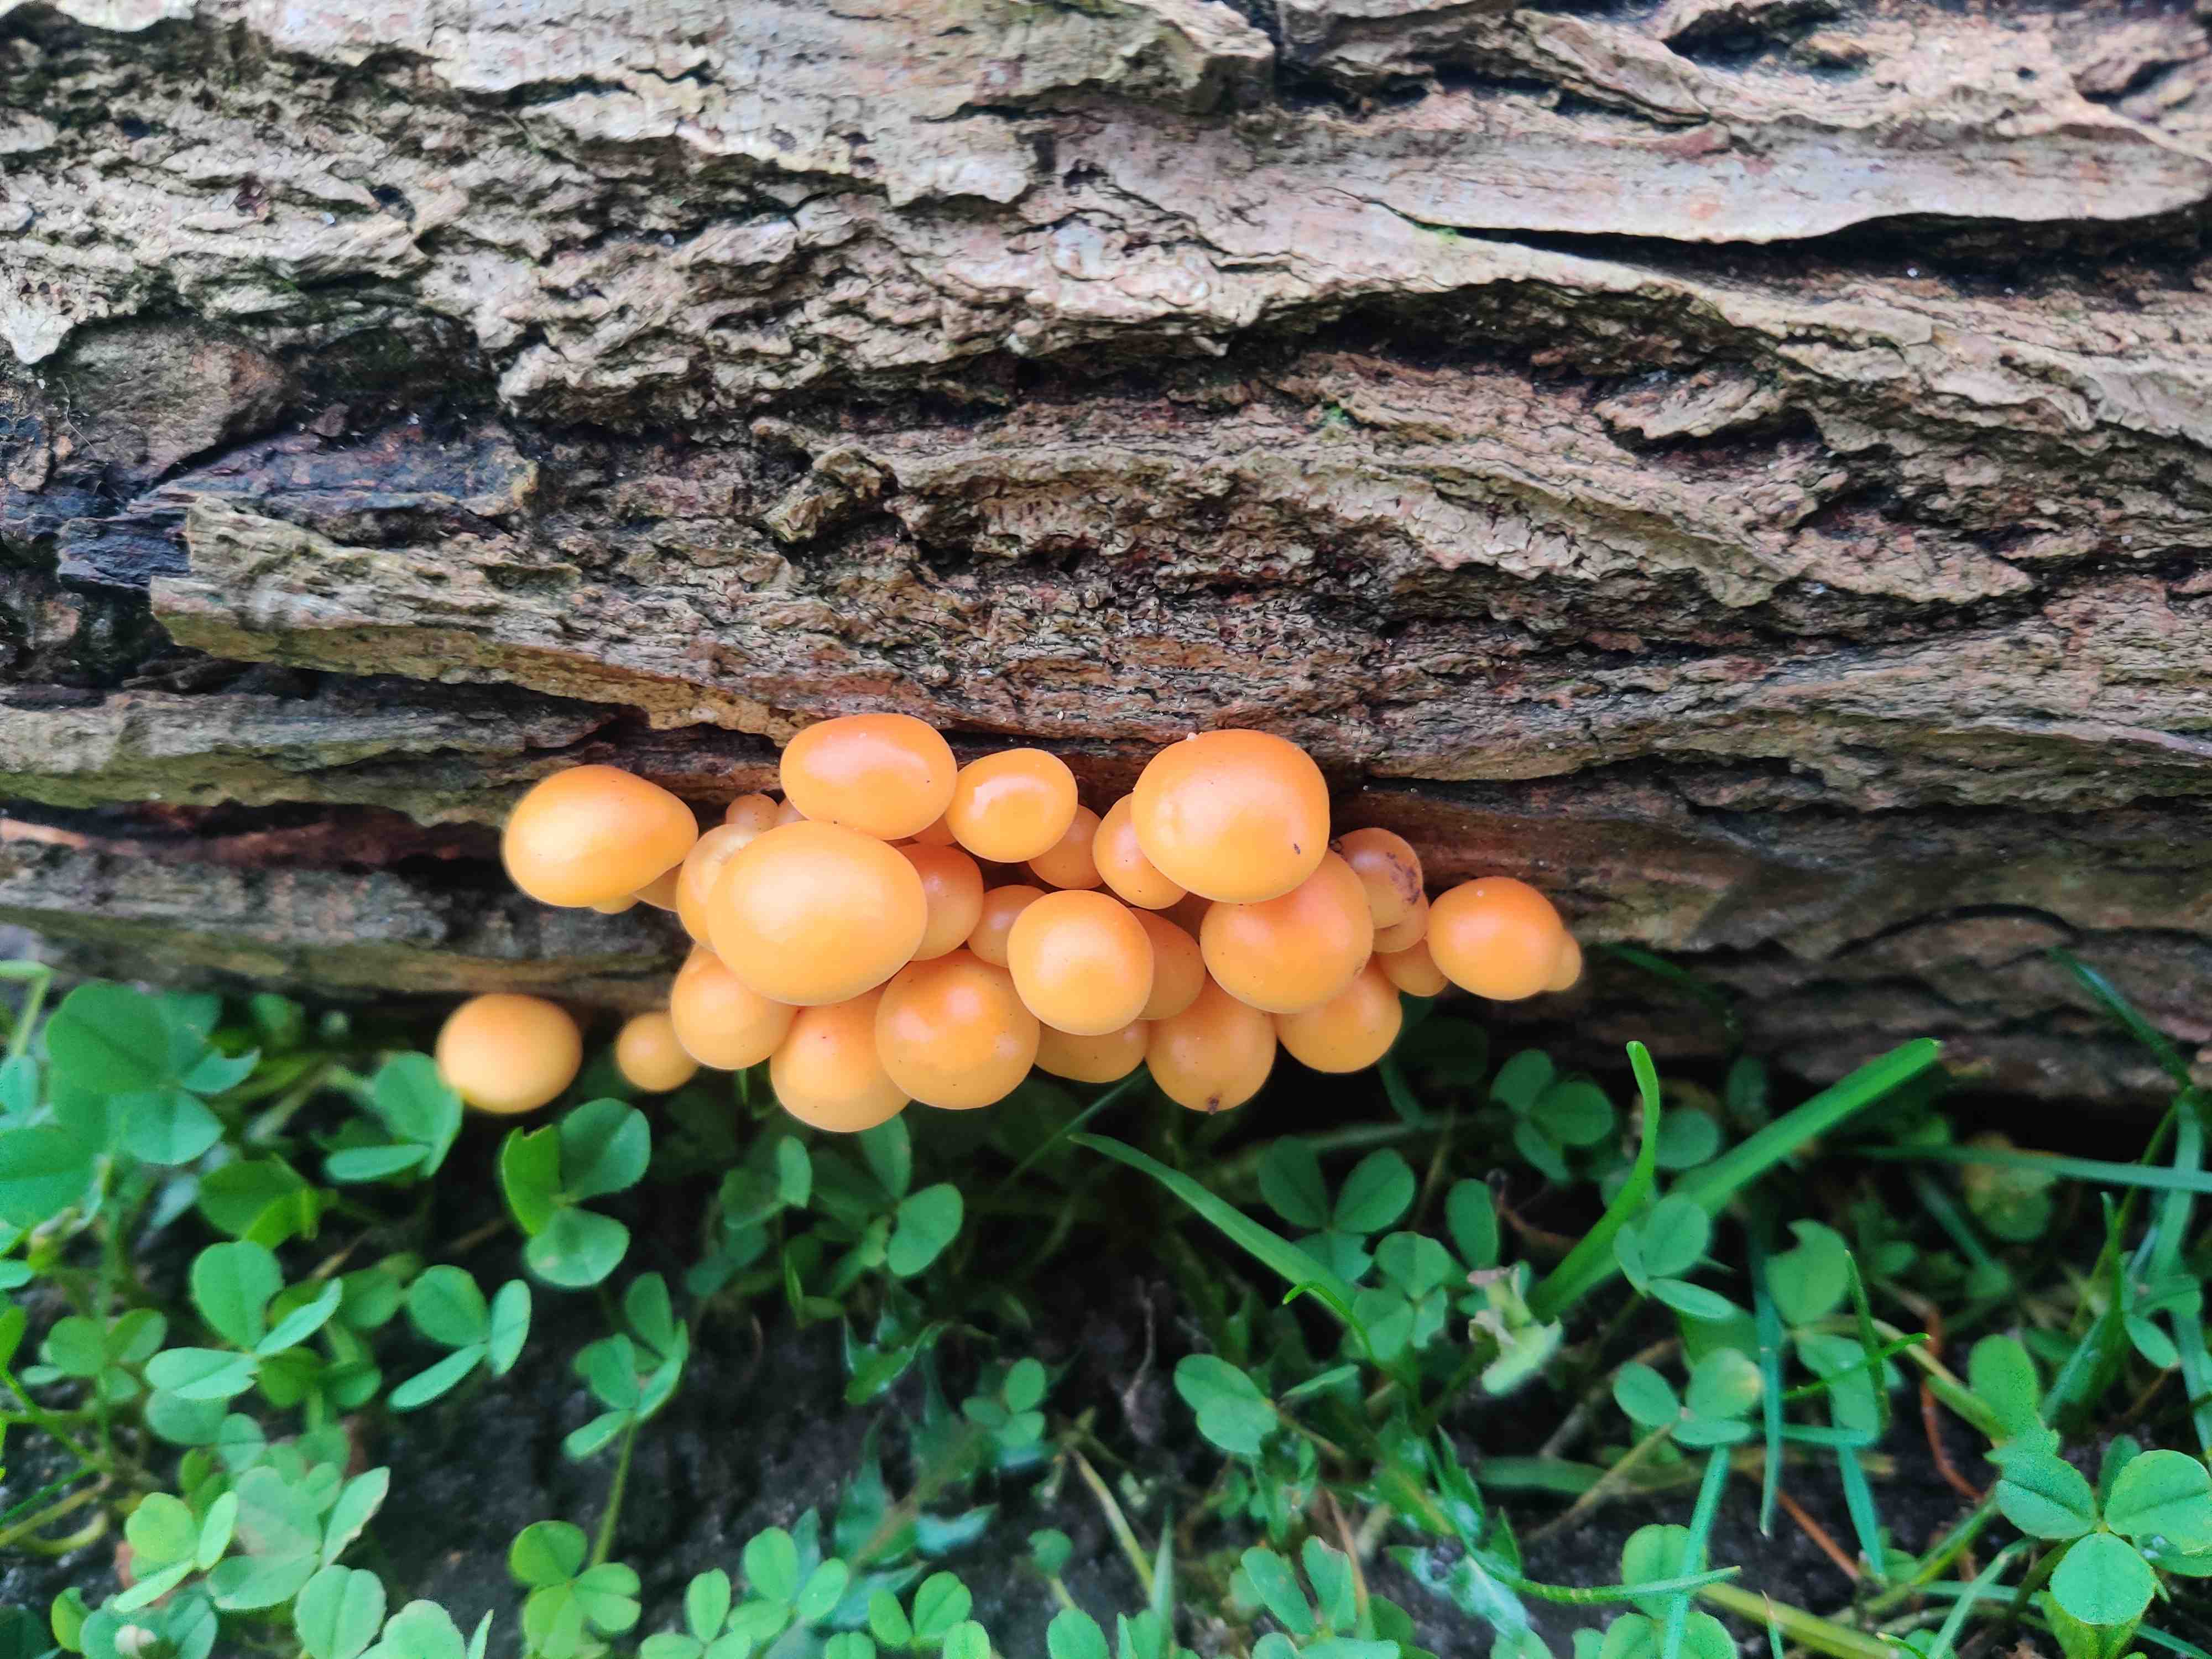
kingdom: Fungi
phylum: Basidiomycota
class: Agaricomycetes
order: Agaricales
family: Physalacriaceae
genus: Flammulina
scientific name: Flammulina
